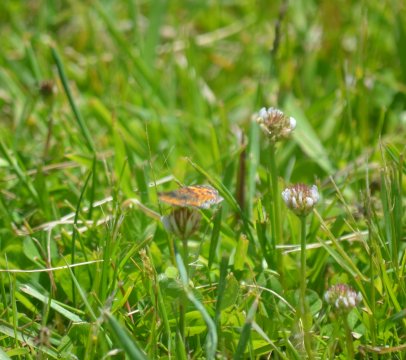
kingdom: Animalia
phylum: Arthropoda
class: Insecta
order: Lepidoptera
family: Nymphalidae
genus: Phyciodes
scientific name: Phyciodes tharos
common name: Northern Crescent
